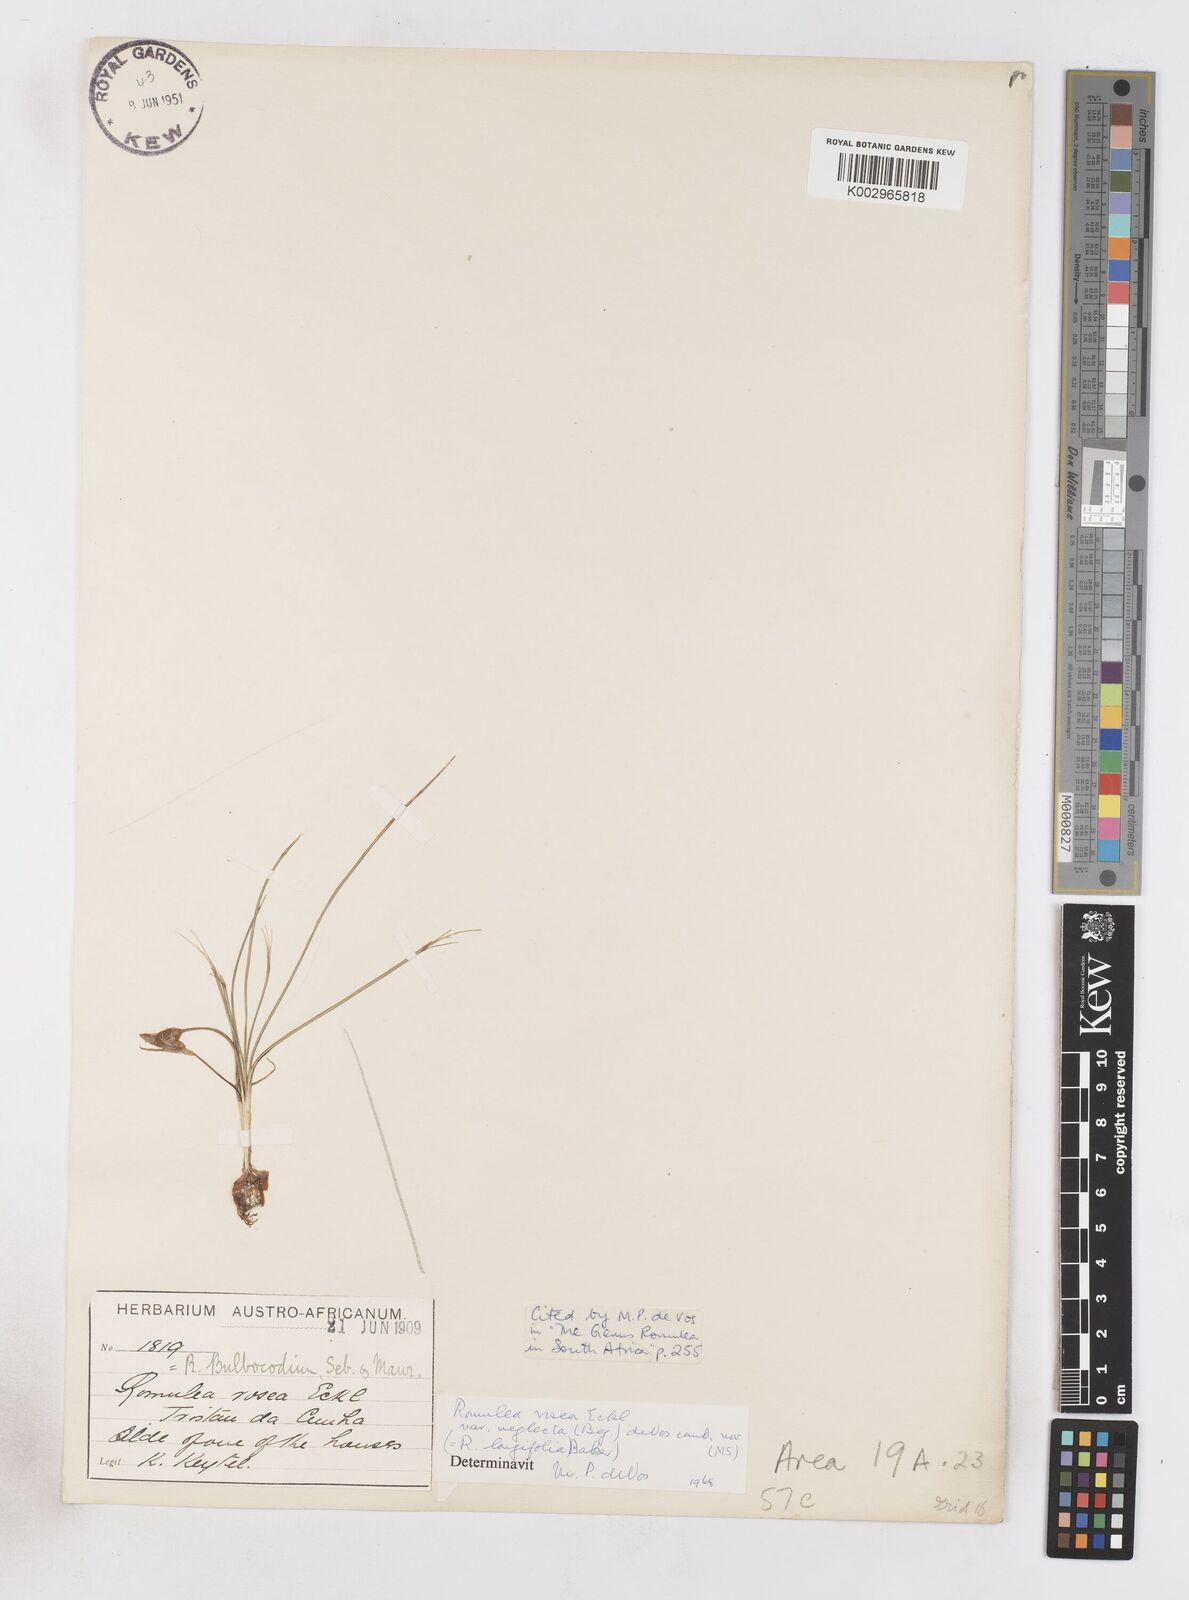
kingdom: Plantae
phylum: Tracheophyta
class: Liliopsida
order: Asparagales
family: Iridaceae
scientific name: Iridaceae
